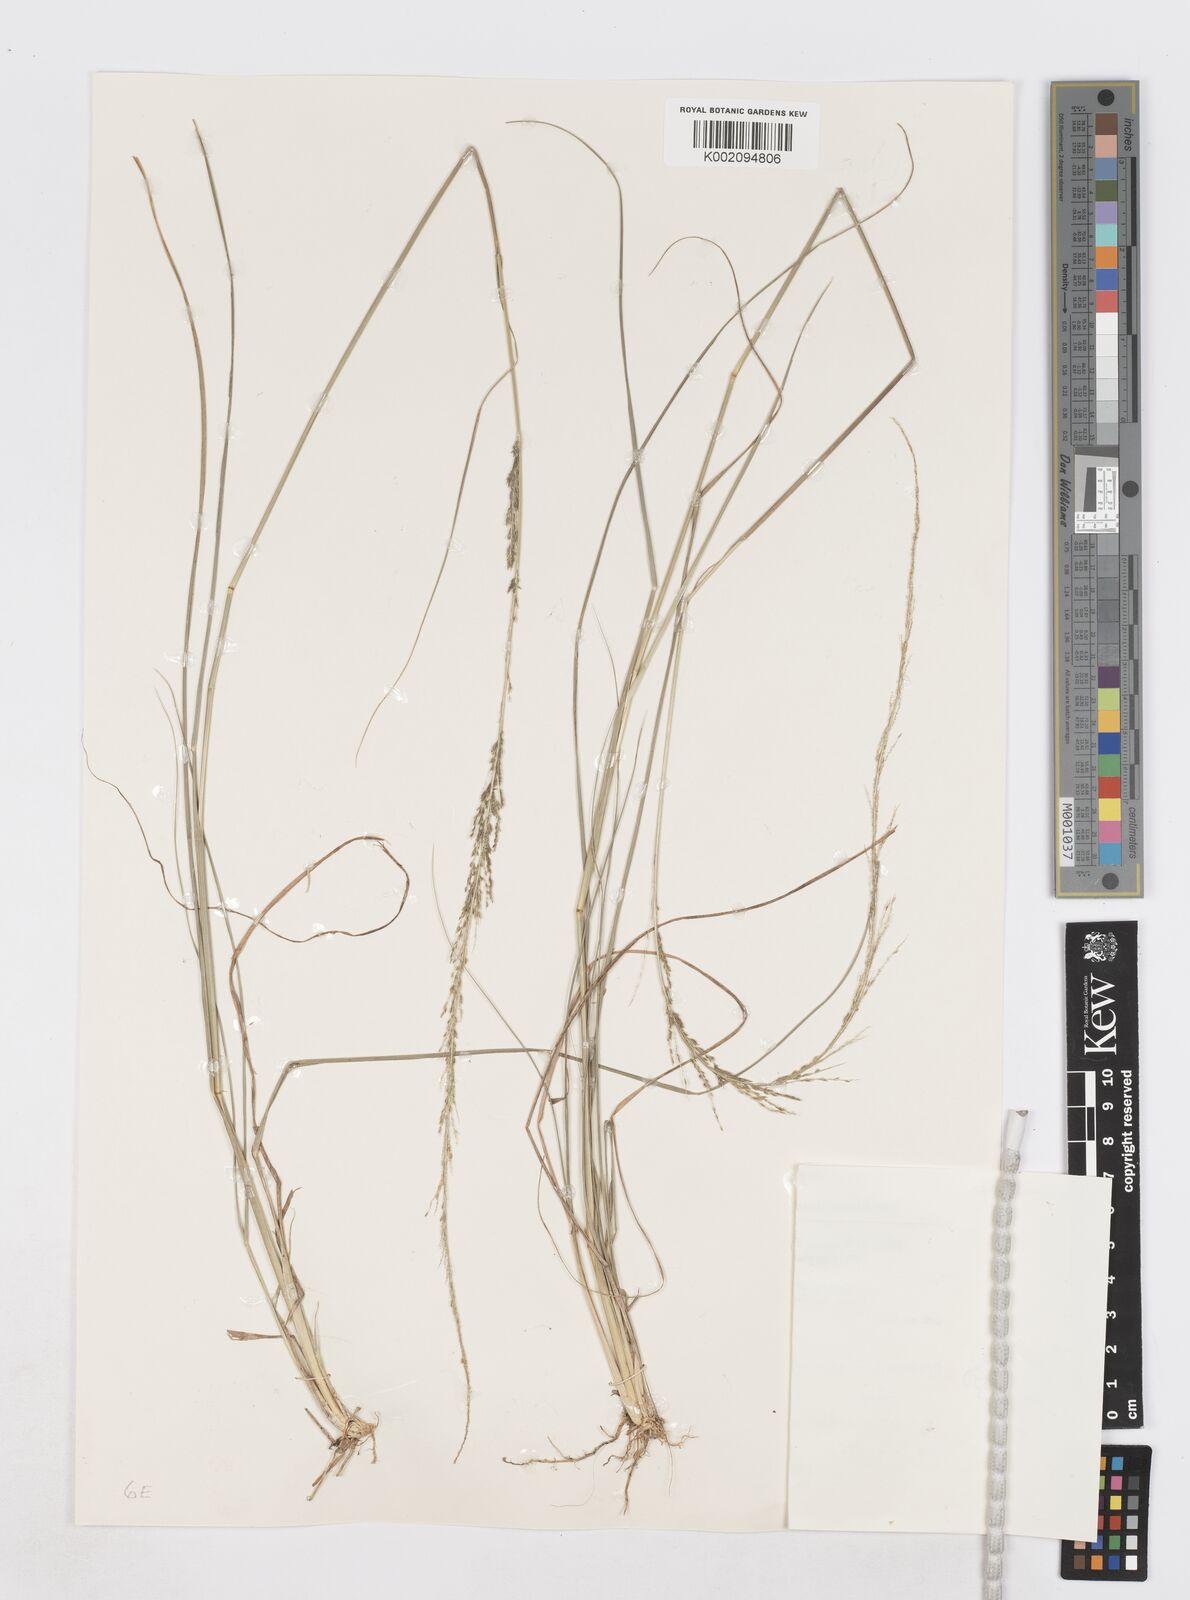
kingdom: Plantae
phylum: Tracheophyta
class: Liliopsida
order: Poales
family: Poaceae
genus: Sporobolus
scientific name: Sporobolus diandrus
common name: Tussock dropseed
